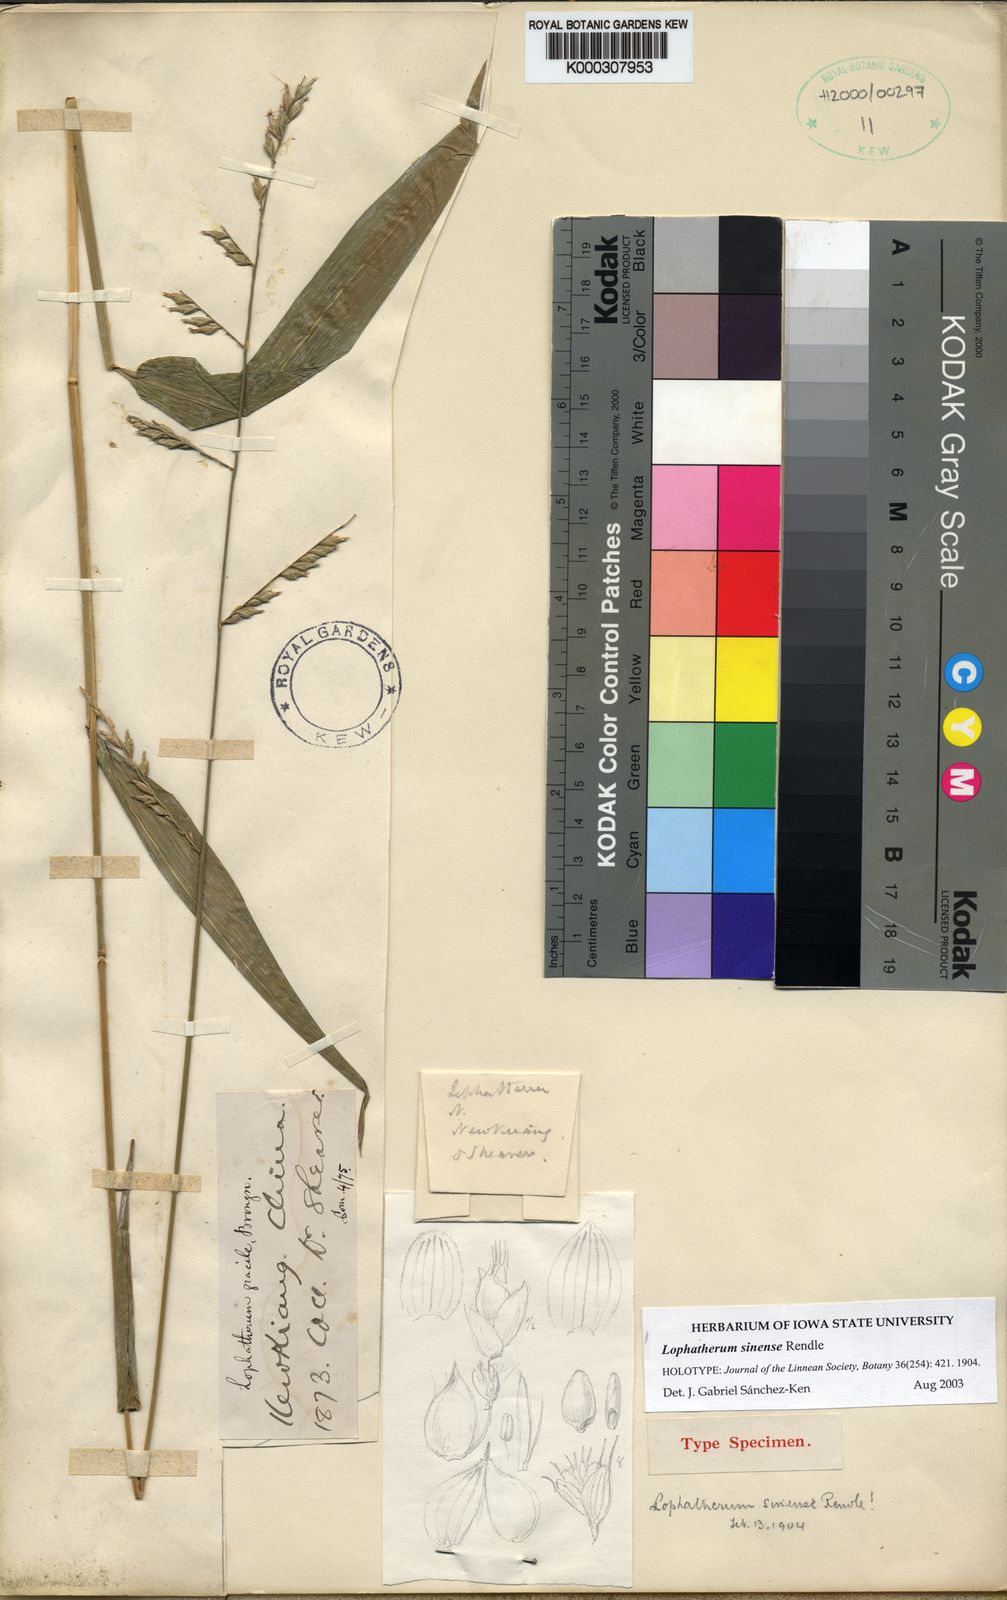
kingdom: Plantae
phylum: Tracheophyta
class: Liliopsida
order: Poales
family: Poaceae
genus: Lophatherum
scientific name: Lophatherum sinense
